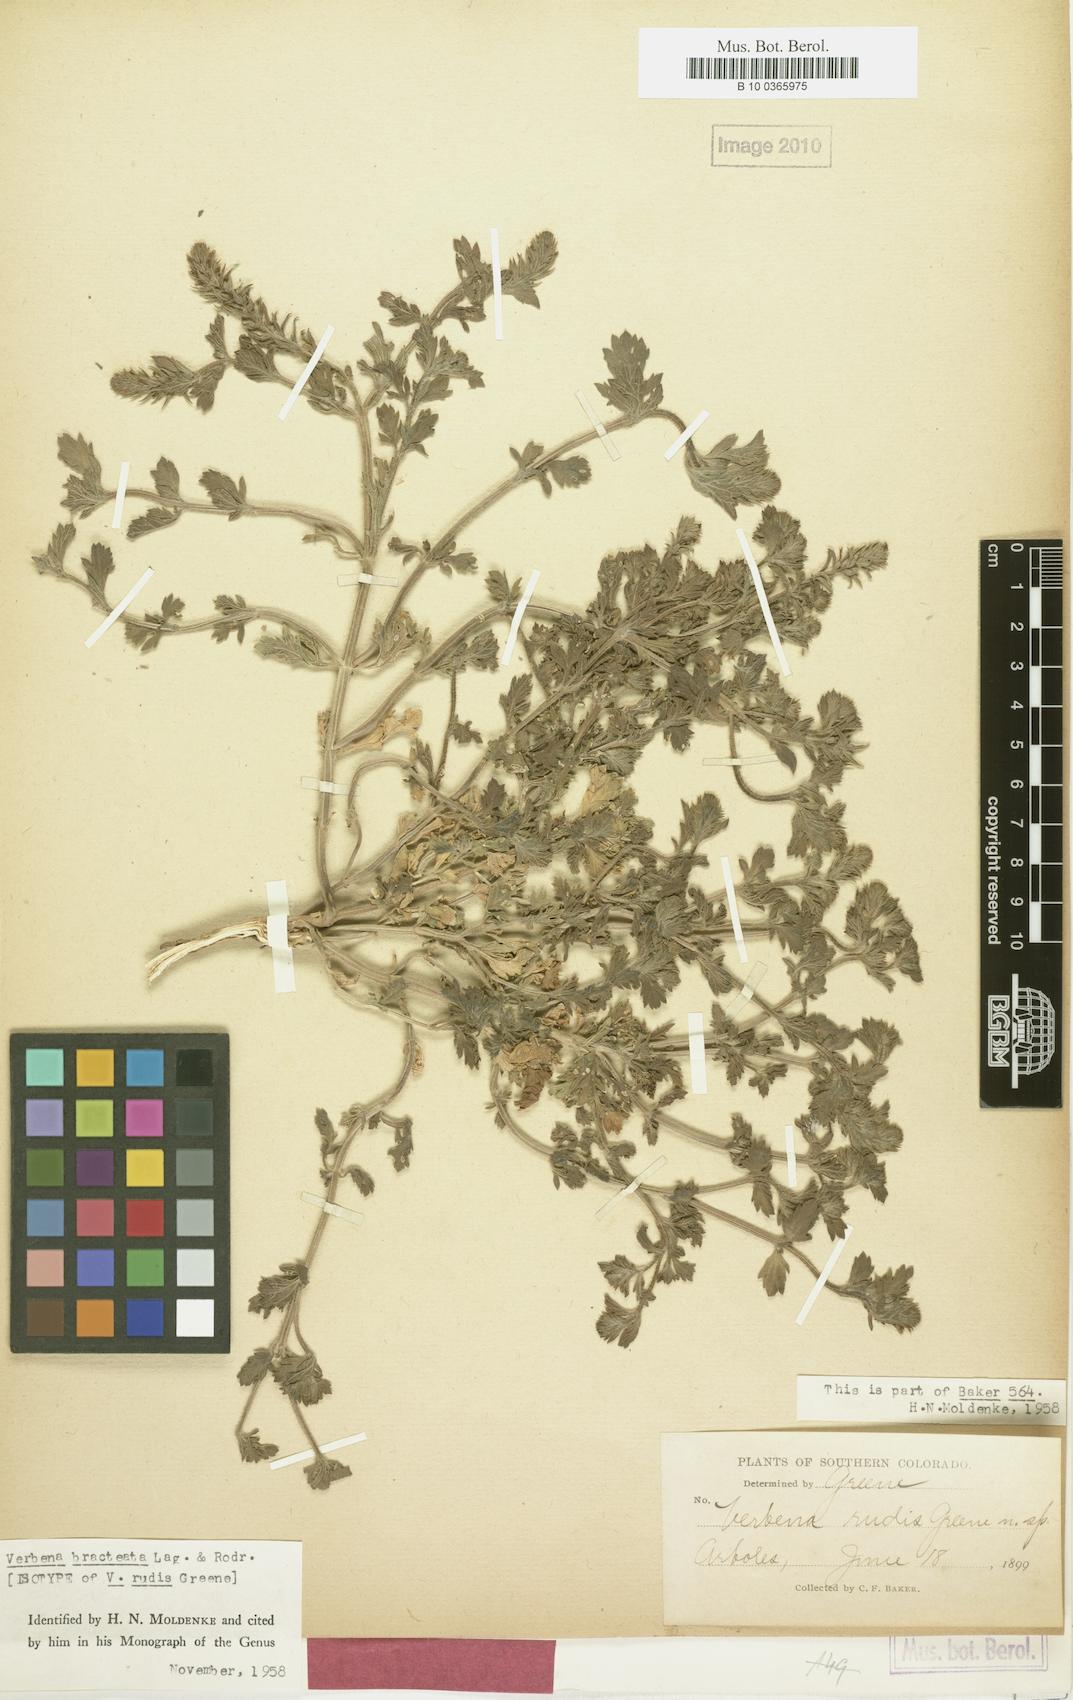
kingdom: Plantae
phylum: Tracheophyta
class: Magnoliopsida
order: Lamiales
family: Verbenaceae
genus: Verbena
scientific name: Verbena bracteata
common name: Bracted vervain
